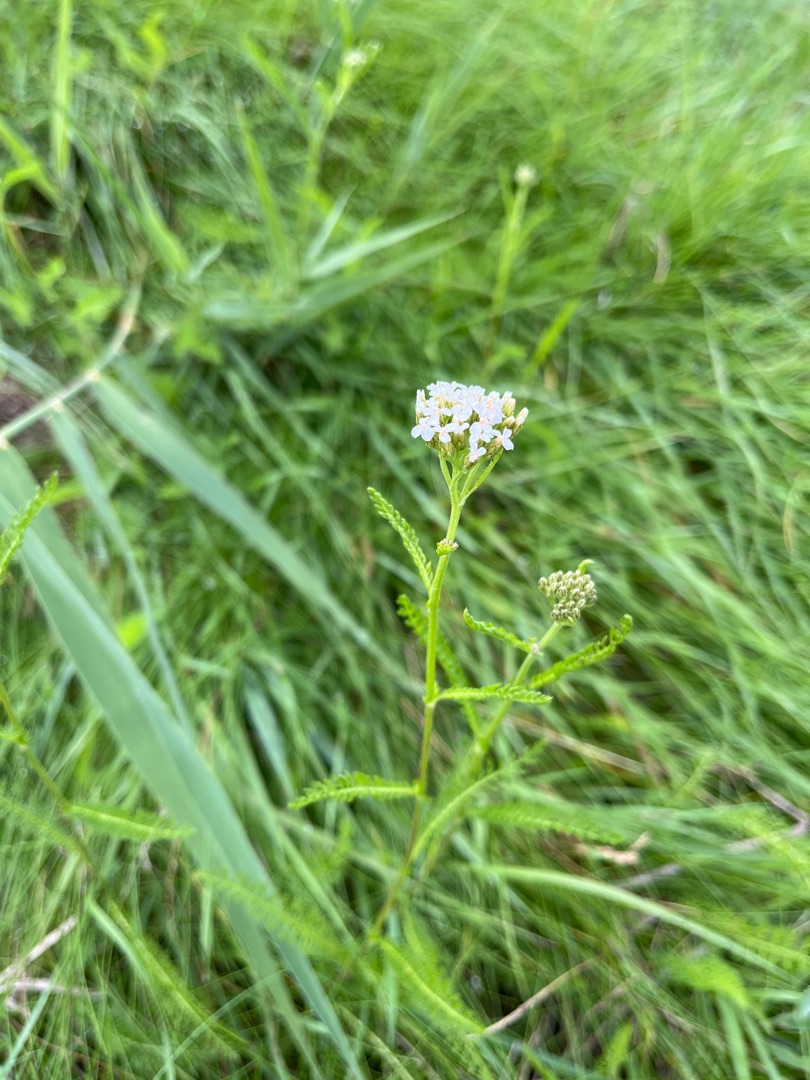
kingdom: Plantae
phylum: Tracheophyta
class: Magnoliopsida
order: Asterales
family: Asteraceae
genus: Achillea
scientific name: Achillea millefolium
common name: Almindelig røllike
